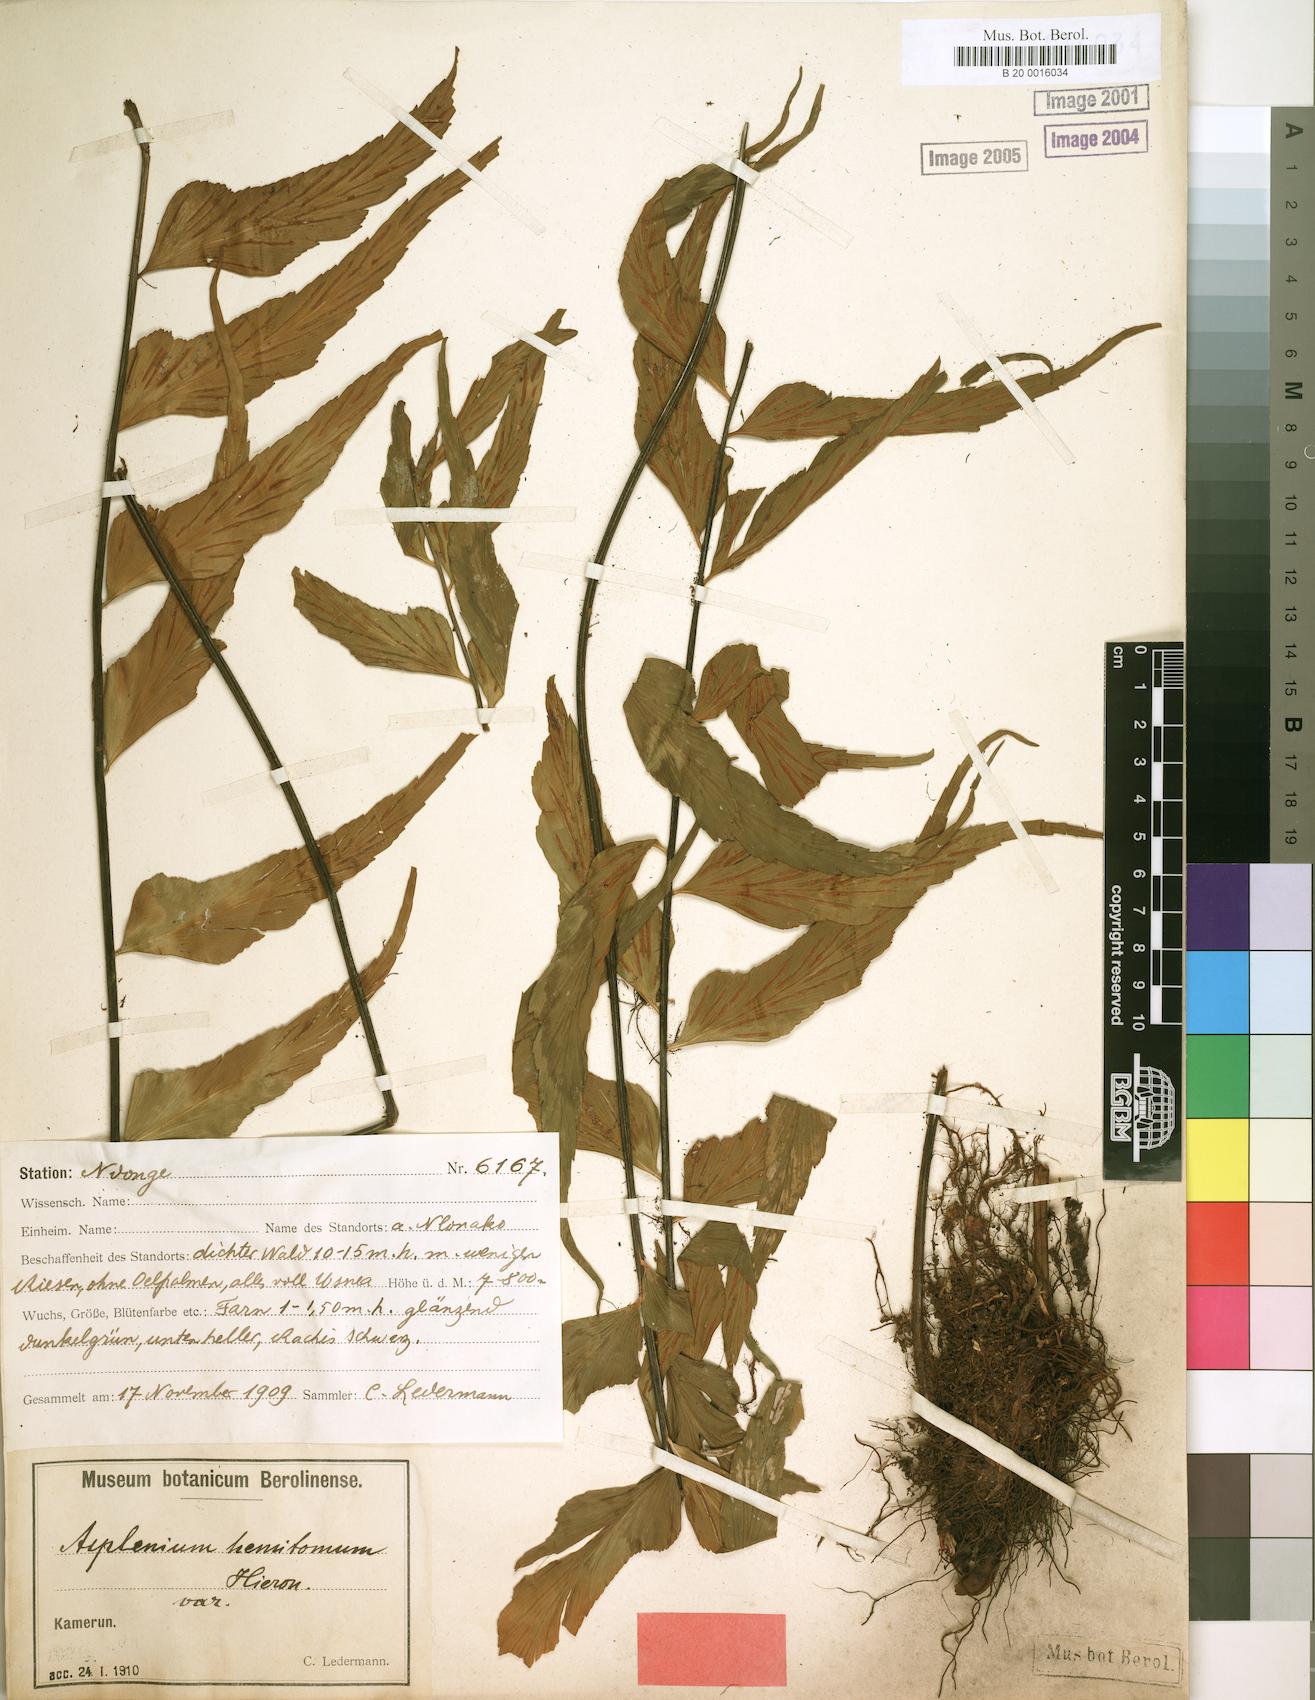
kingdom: Plantae
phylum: Tracheophyta
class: Polypodiopsida
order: Polypodiales
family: Aspleniaceae
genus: Asplenium
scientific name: Asplenium hemitomum
